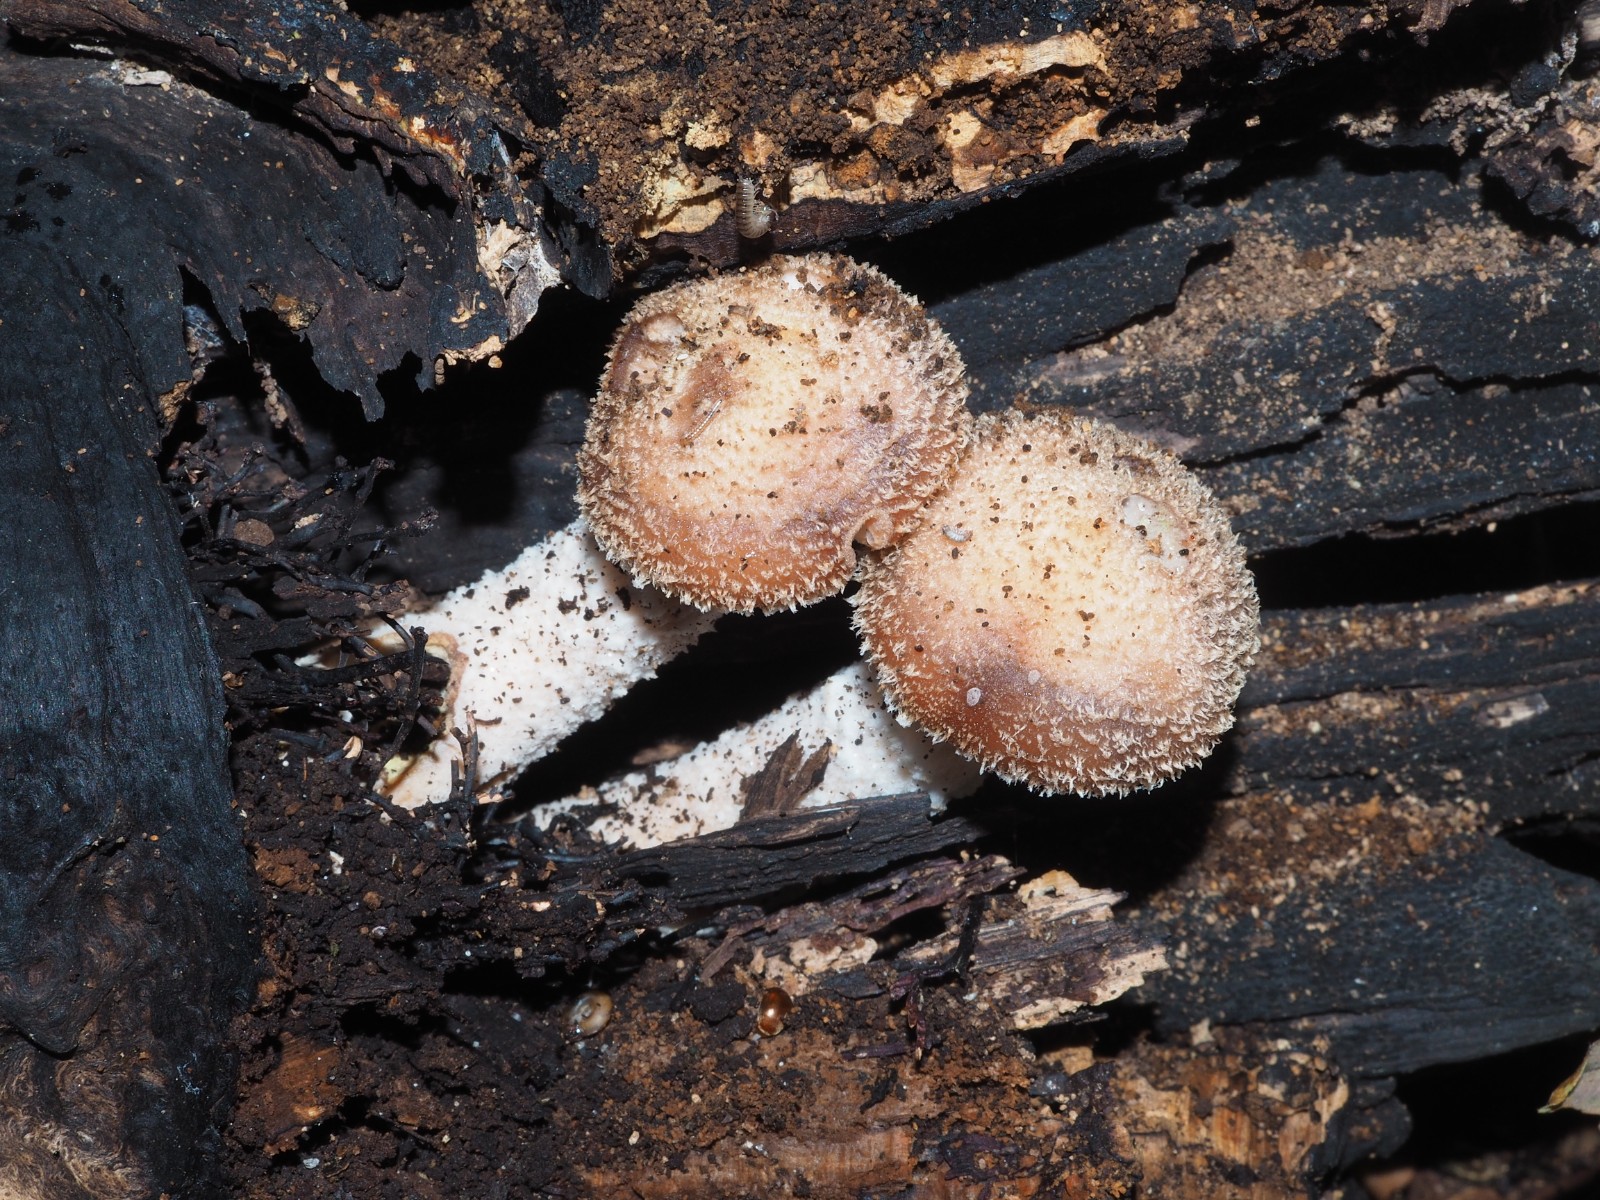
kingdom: Fungi
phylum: Basidiomycota
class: Agaricomycetes
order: Agaricales
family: Physalacriaceae
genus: Armillaria
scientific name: Armillaria
